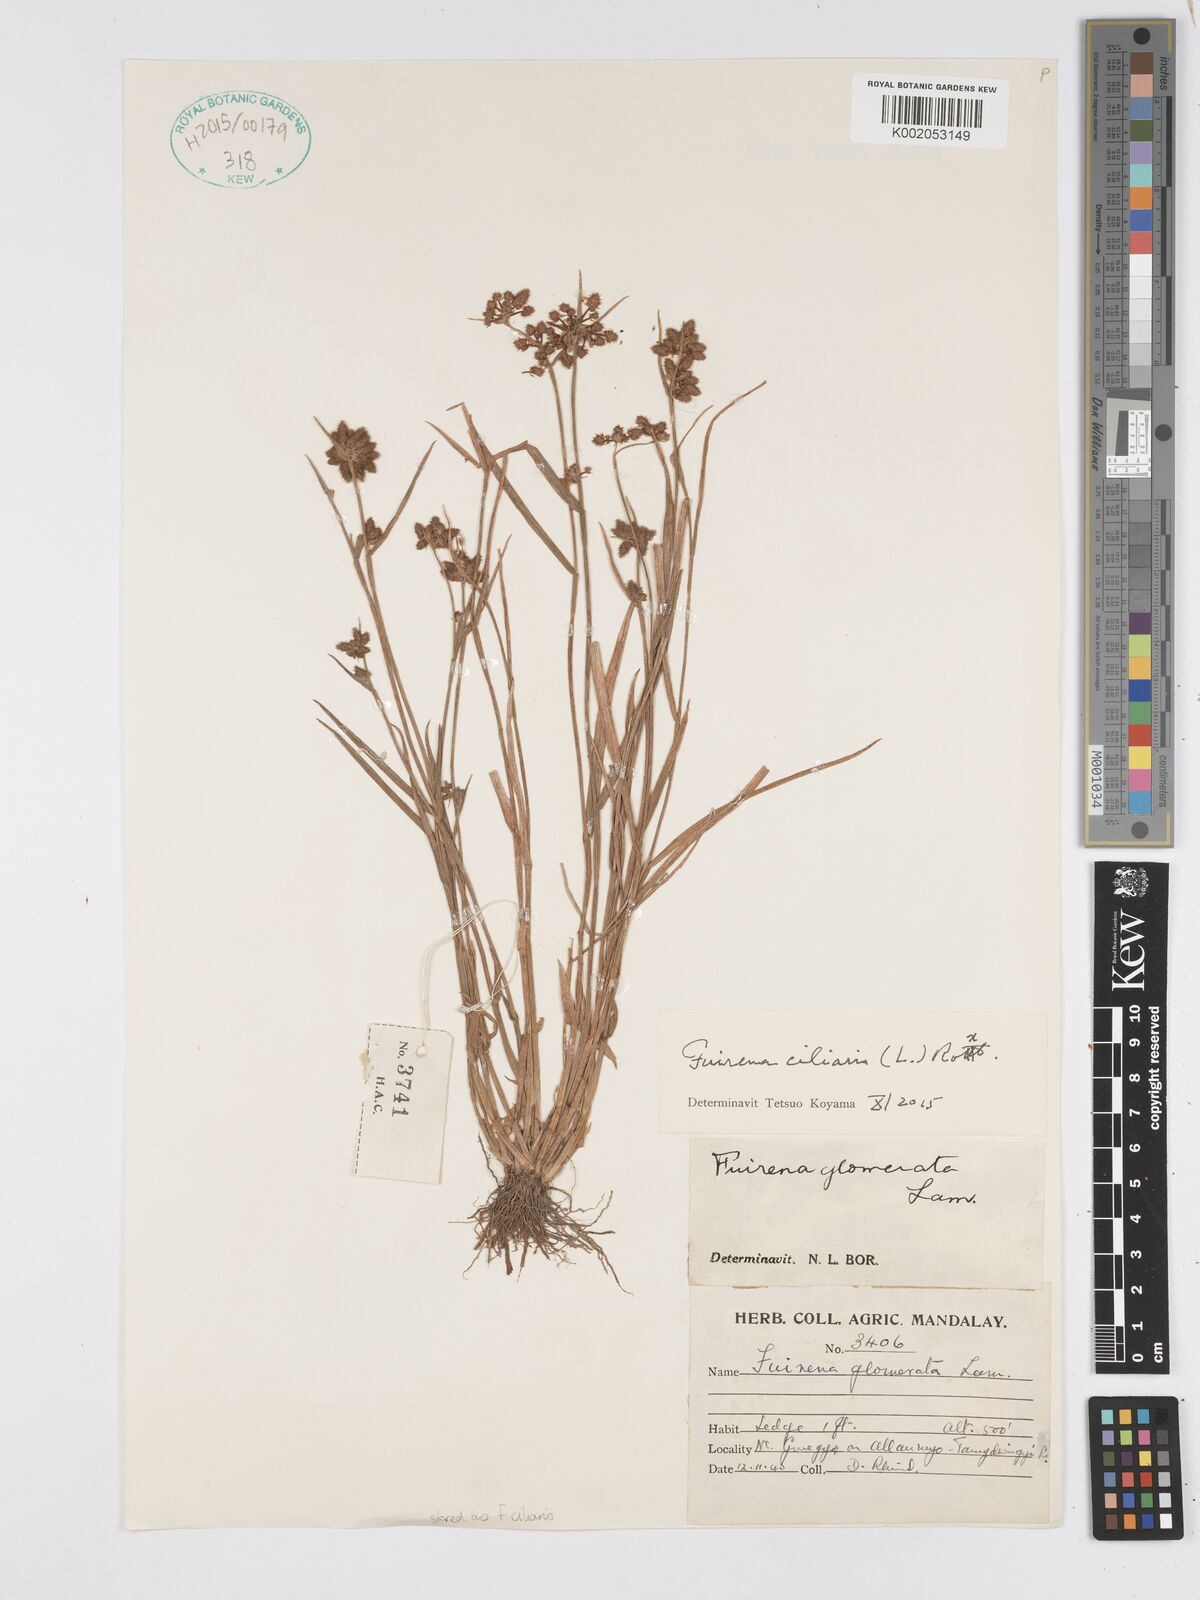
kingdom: Plantae
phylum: Tracheophyta
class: Liliopsida
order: Poales
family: Cyperaceae
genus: Fuirena
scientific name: Fuirena ciliaris
